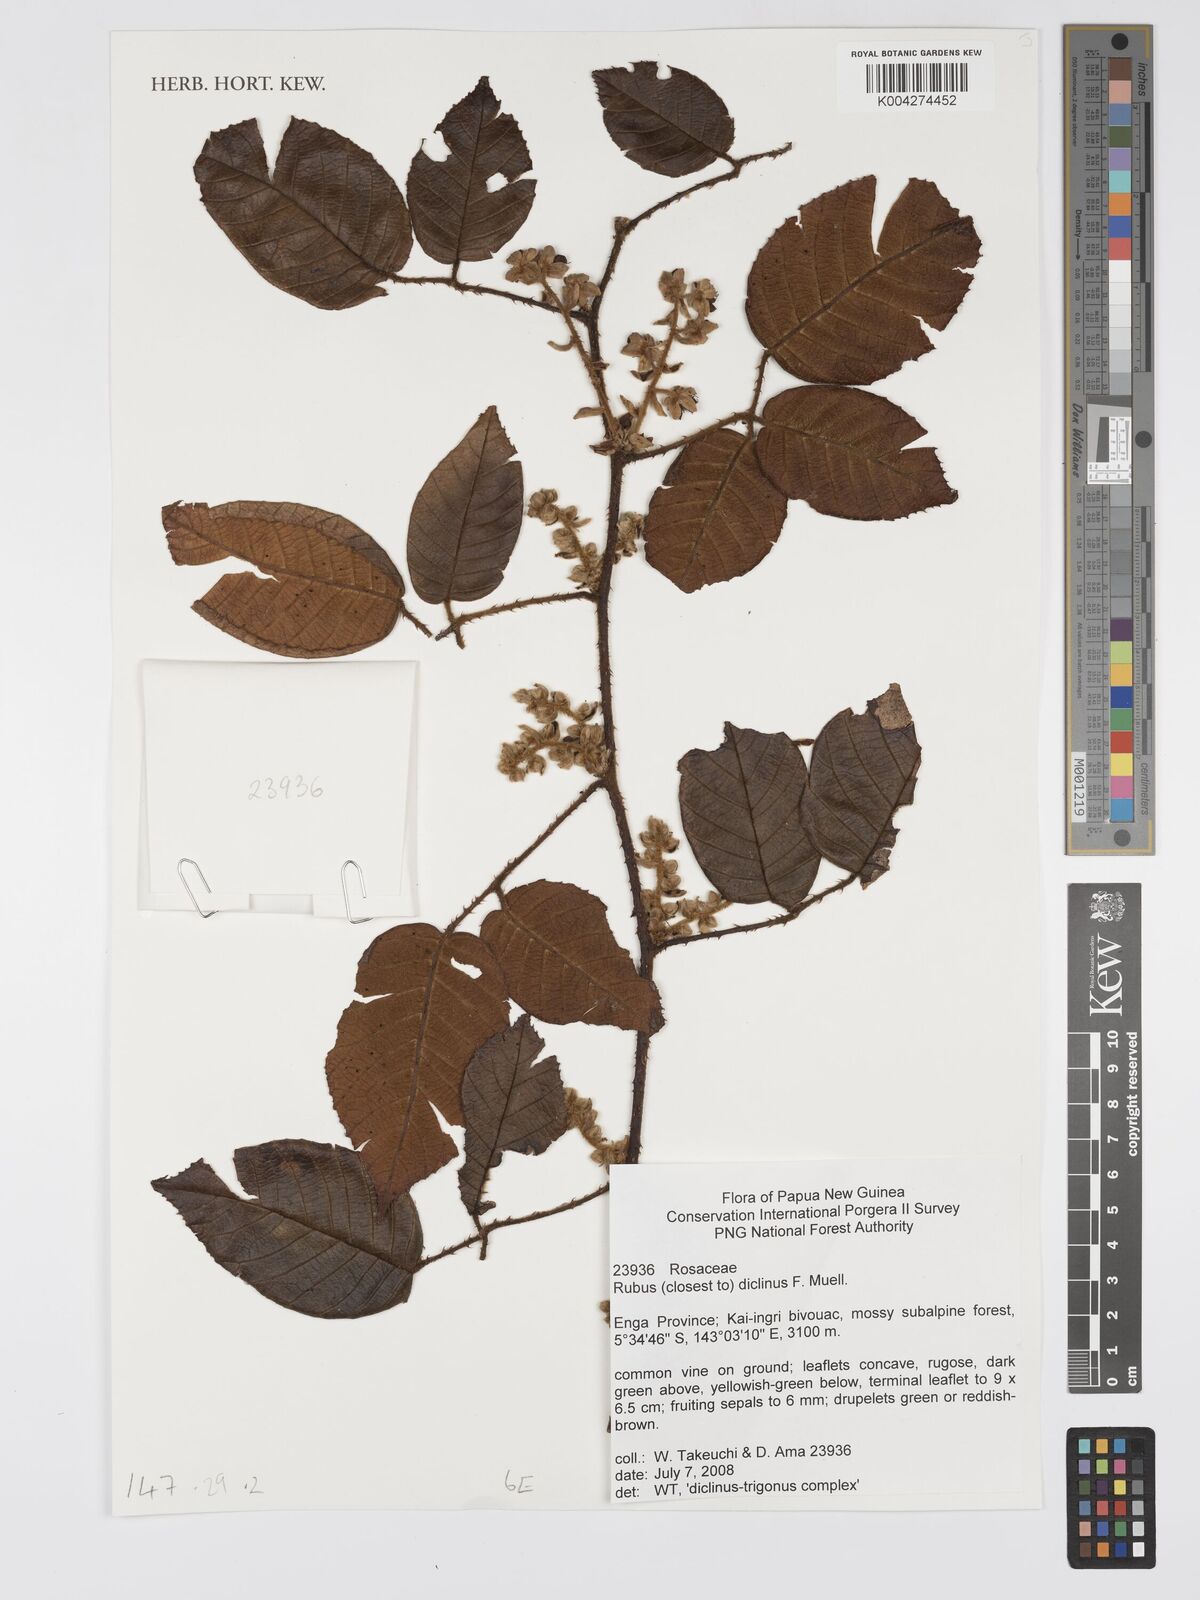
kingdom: Plantae
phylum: Tracheophyta
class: Magnoliopsida
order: Rosales
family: Rosaceae
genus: Rubus
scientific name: Rubus diclinis
